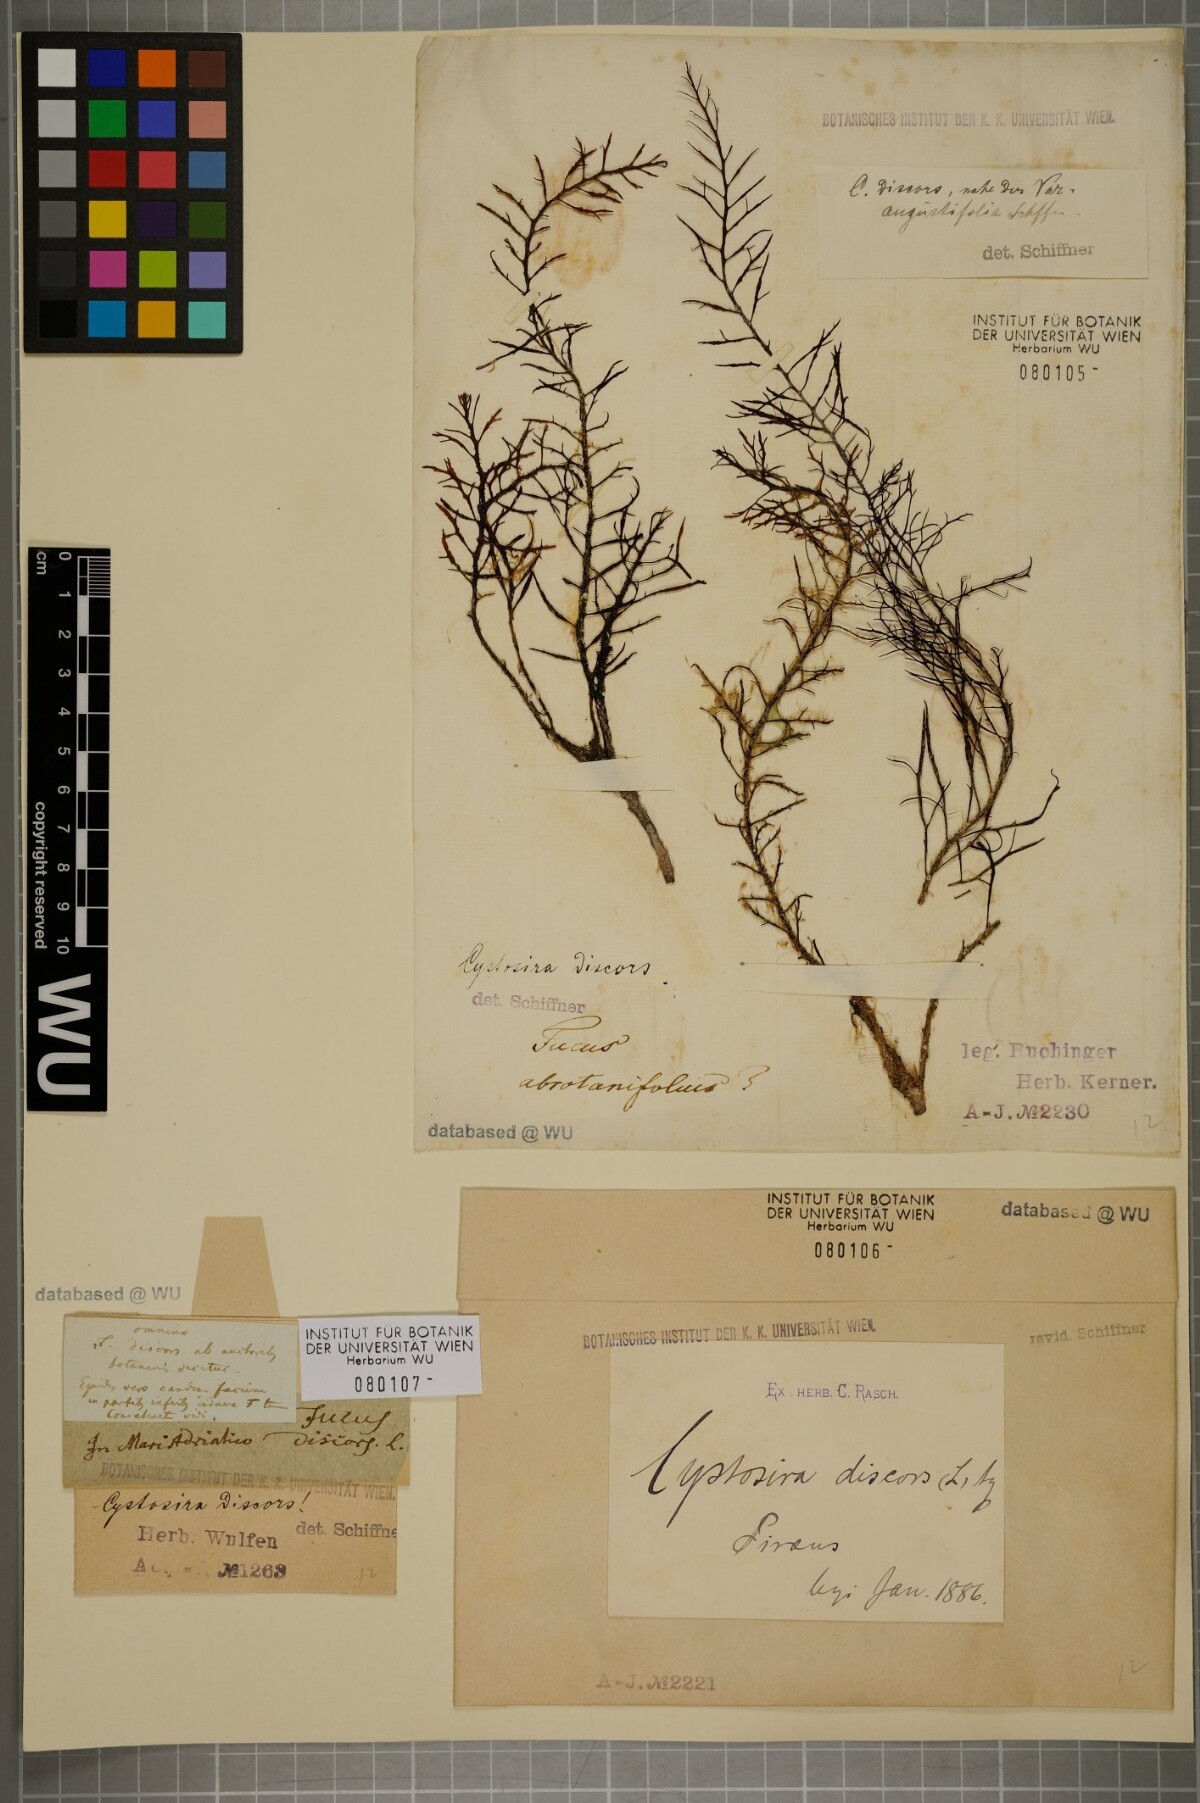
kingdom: Chromista
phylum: Ochrophyta
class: Phaeophyceae
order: Fucales
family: Sargassaceae
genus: Cystoseira
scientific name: Cystoseira foeniculacea
